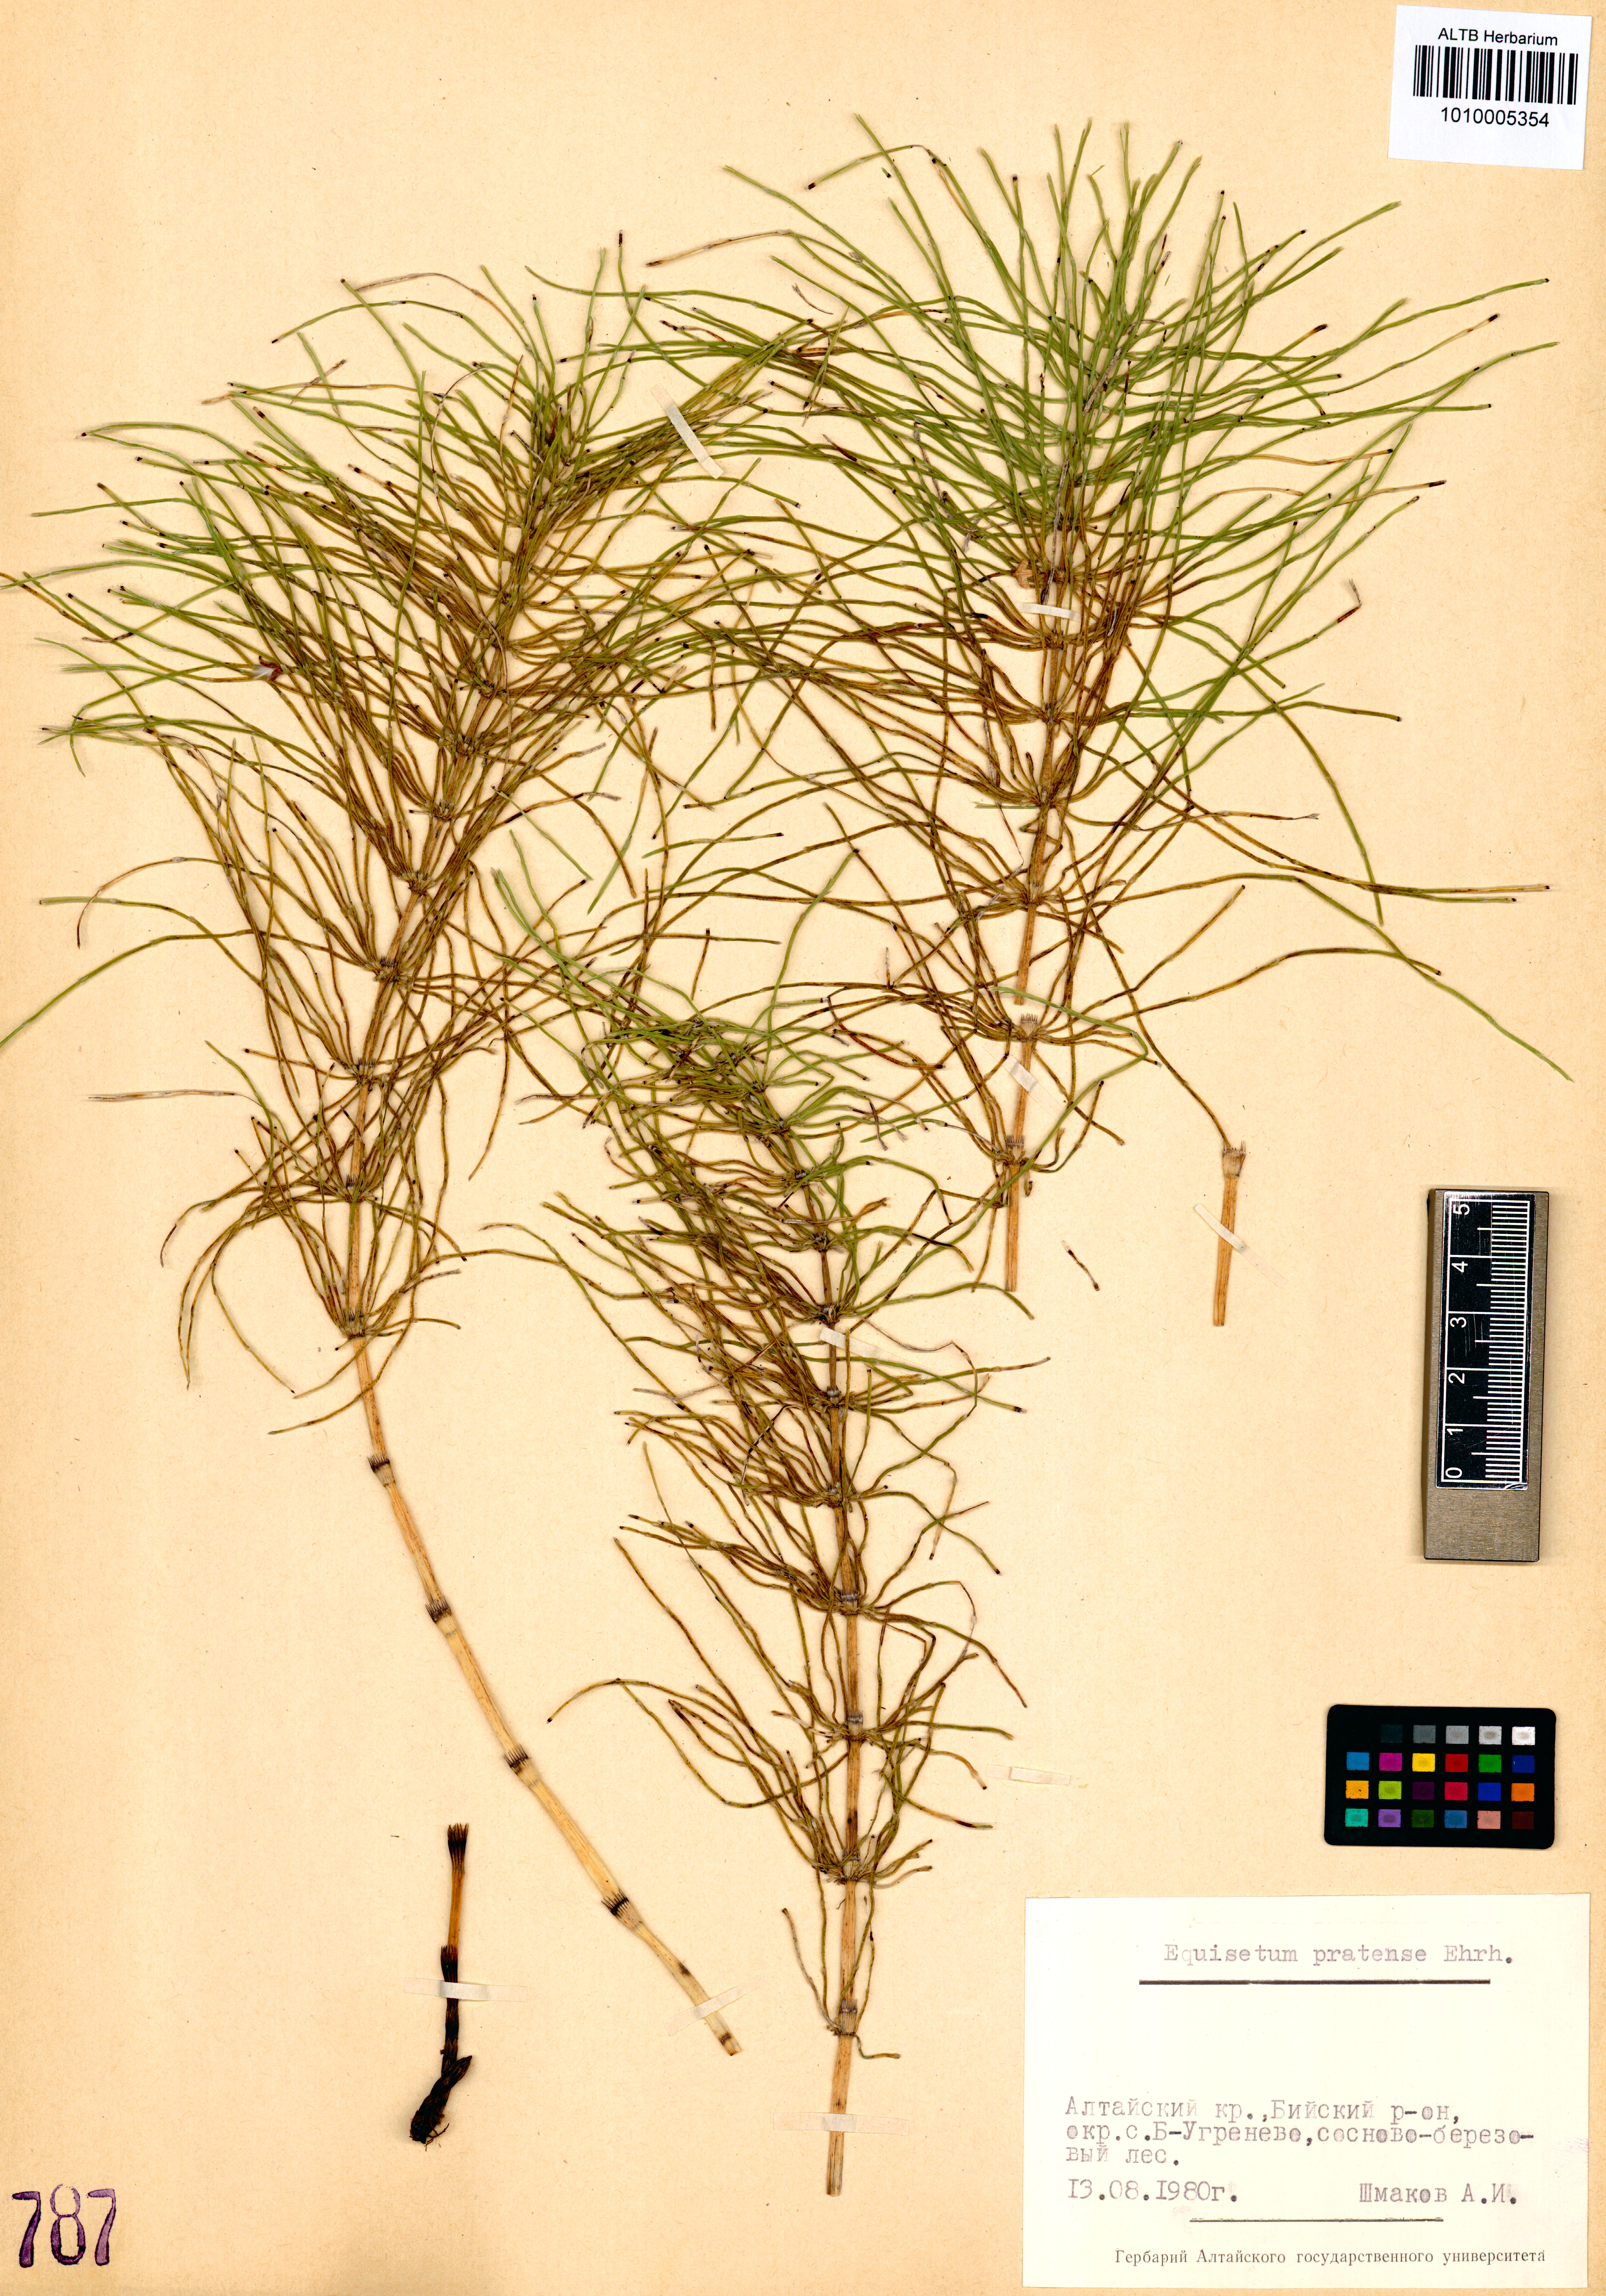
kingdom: Plantae
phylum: Tracheophyta
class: Polypodiopsida
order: Equisetales
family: Equisetaceae
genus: Equisetum
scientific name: Equisetum pratense
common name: Meadow horsetail
